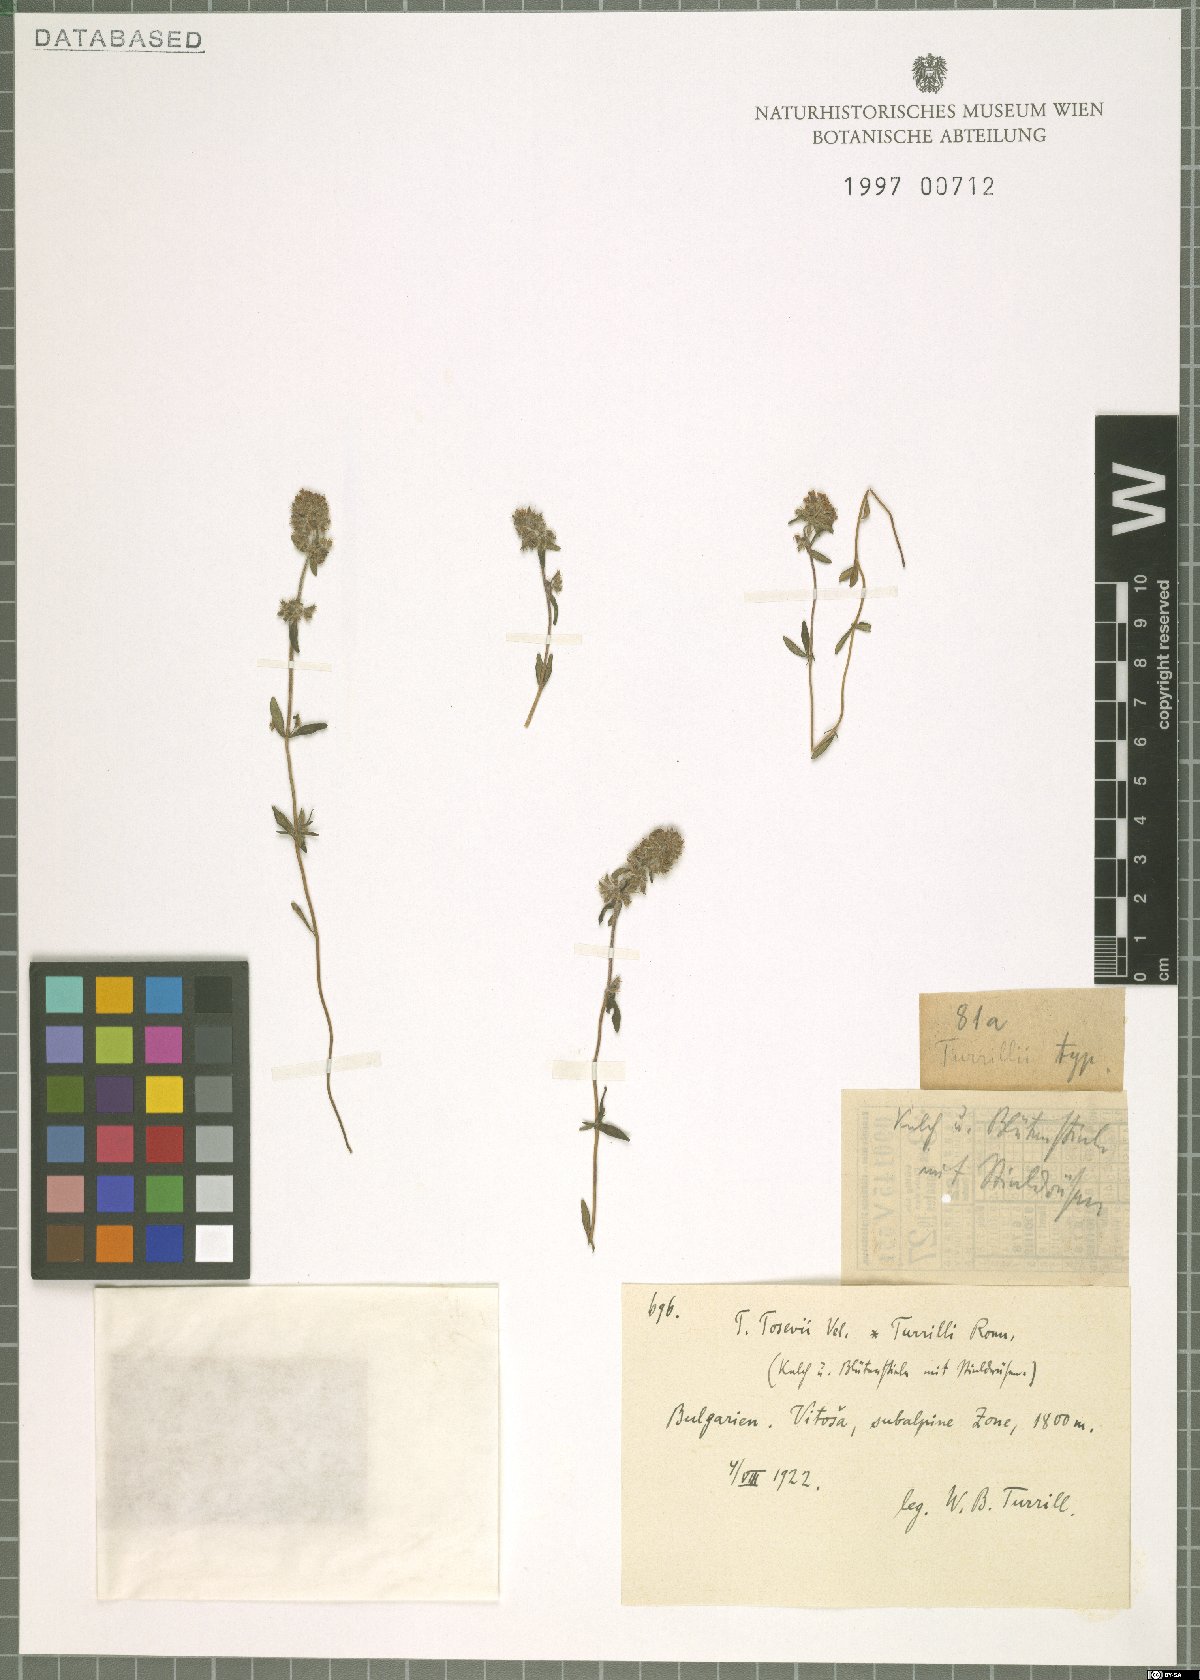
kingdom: Plantae
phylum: Tracheophyta
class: Magnoliopsida
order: Lamiales
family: Lamiaceae
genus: Thymus
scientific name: Thymus
